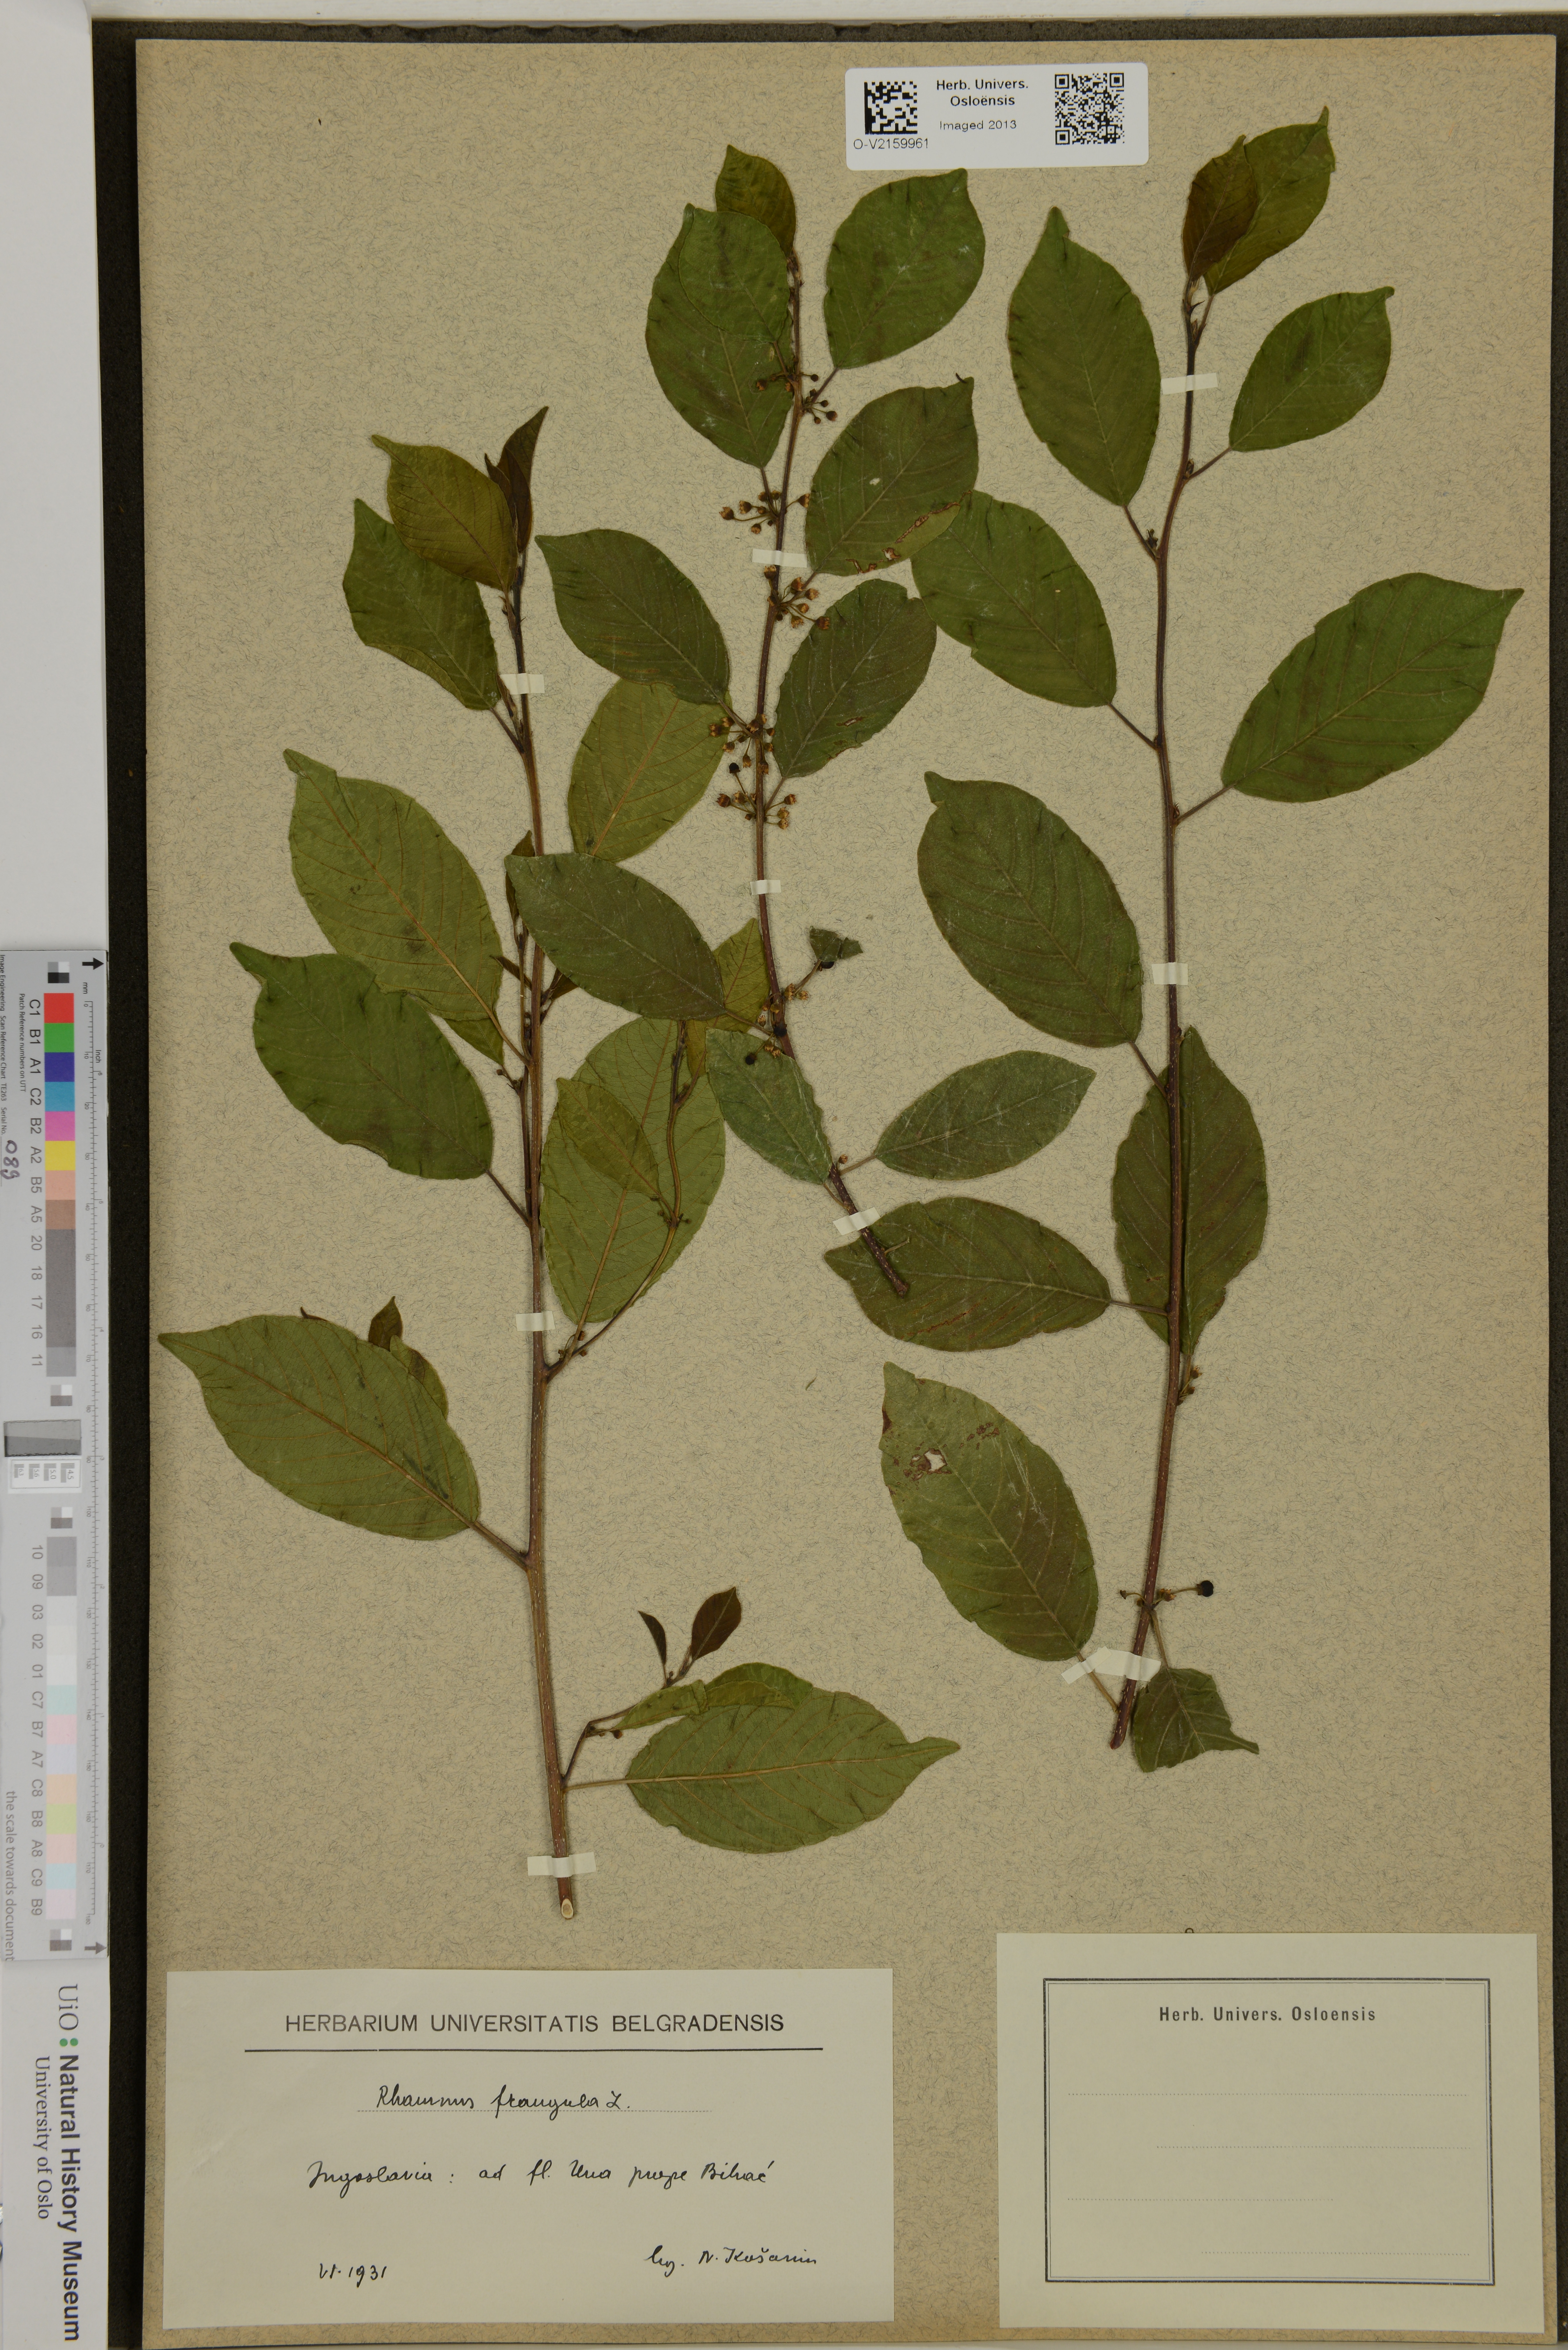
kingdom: Plantae
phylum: Tracheophyta
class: Magnoliopsida
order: Rosales
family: Rhamnaceae
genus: Frangula
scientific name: Frangula alnus
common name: Alder buckthorn
